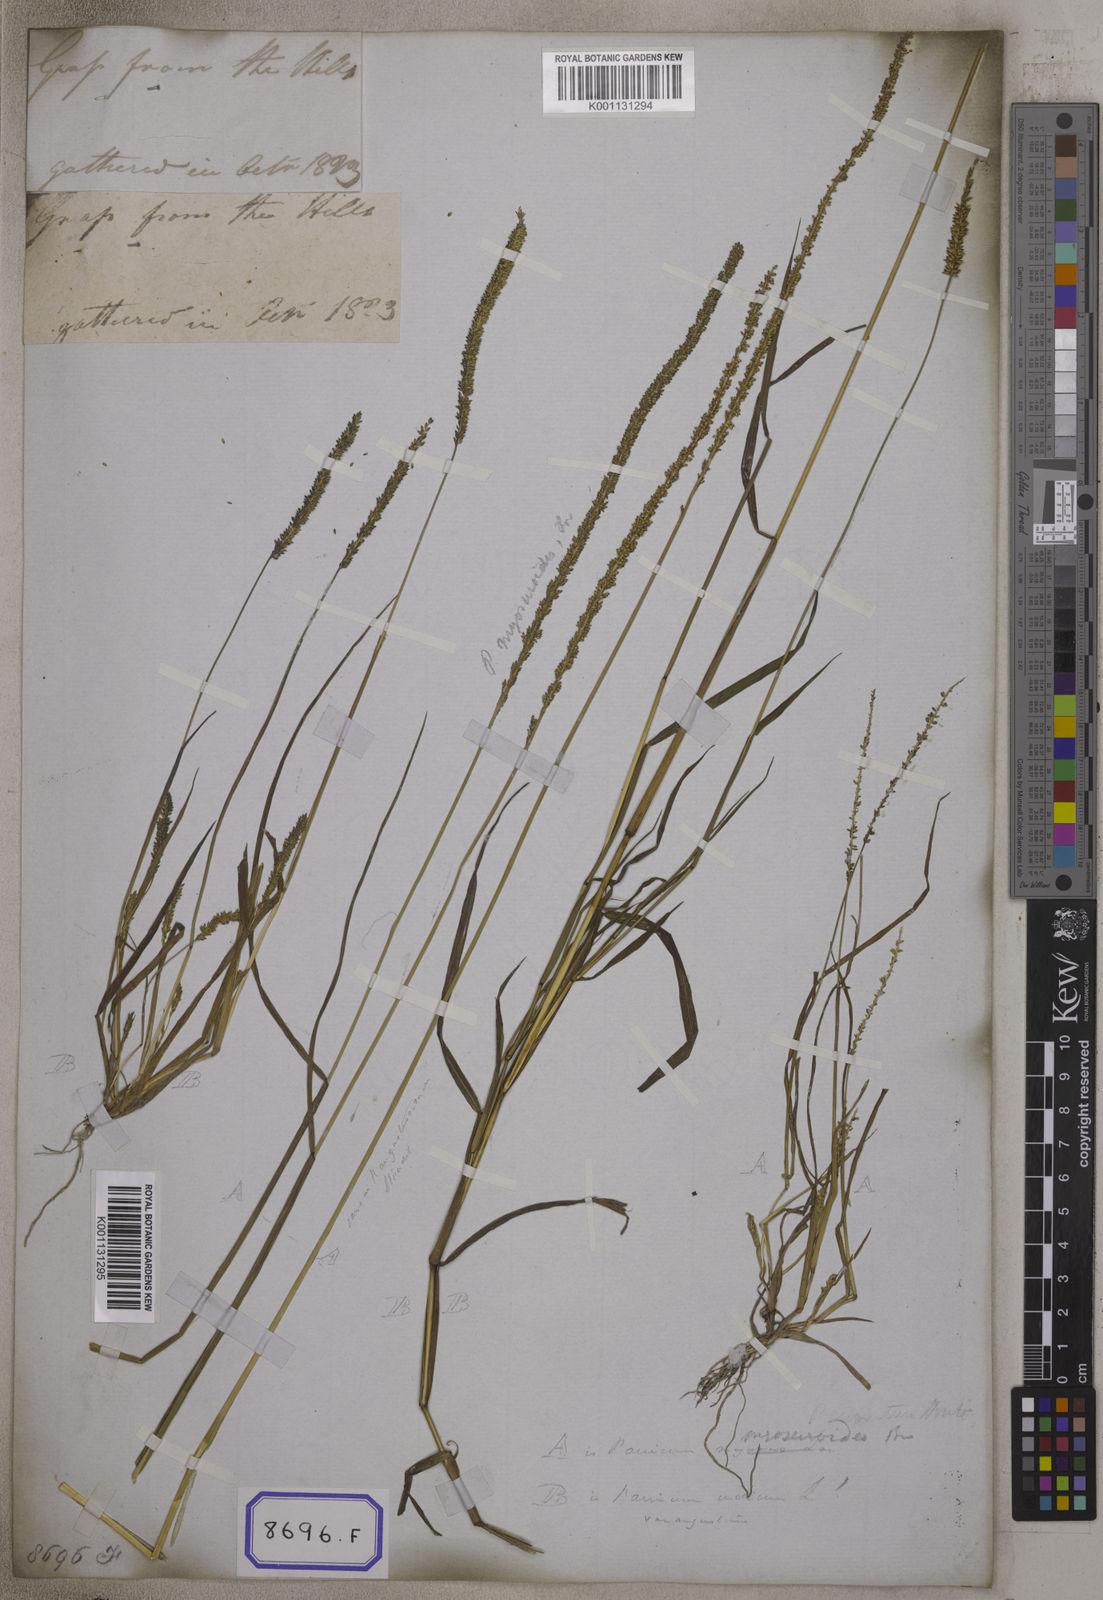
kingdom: Plantae
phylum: Tracheophyta
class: Liliopsida
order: Poales
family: Poaceae
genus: Panicum
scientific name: Panicum
